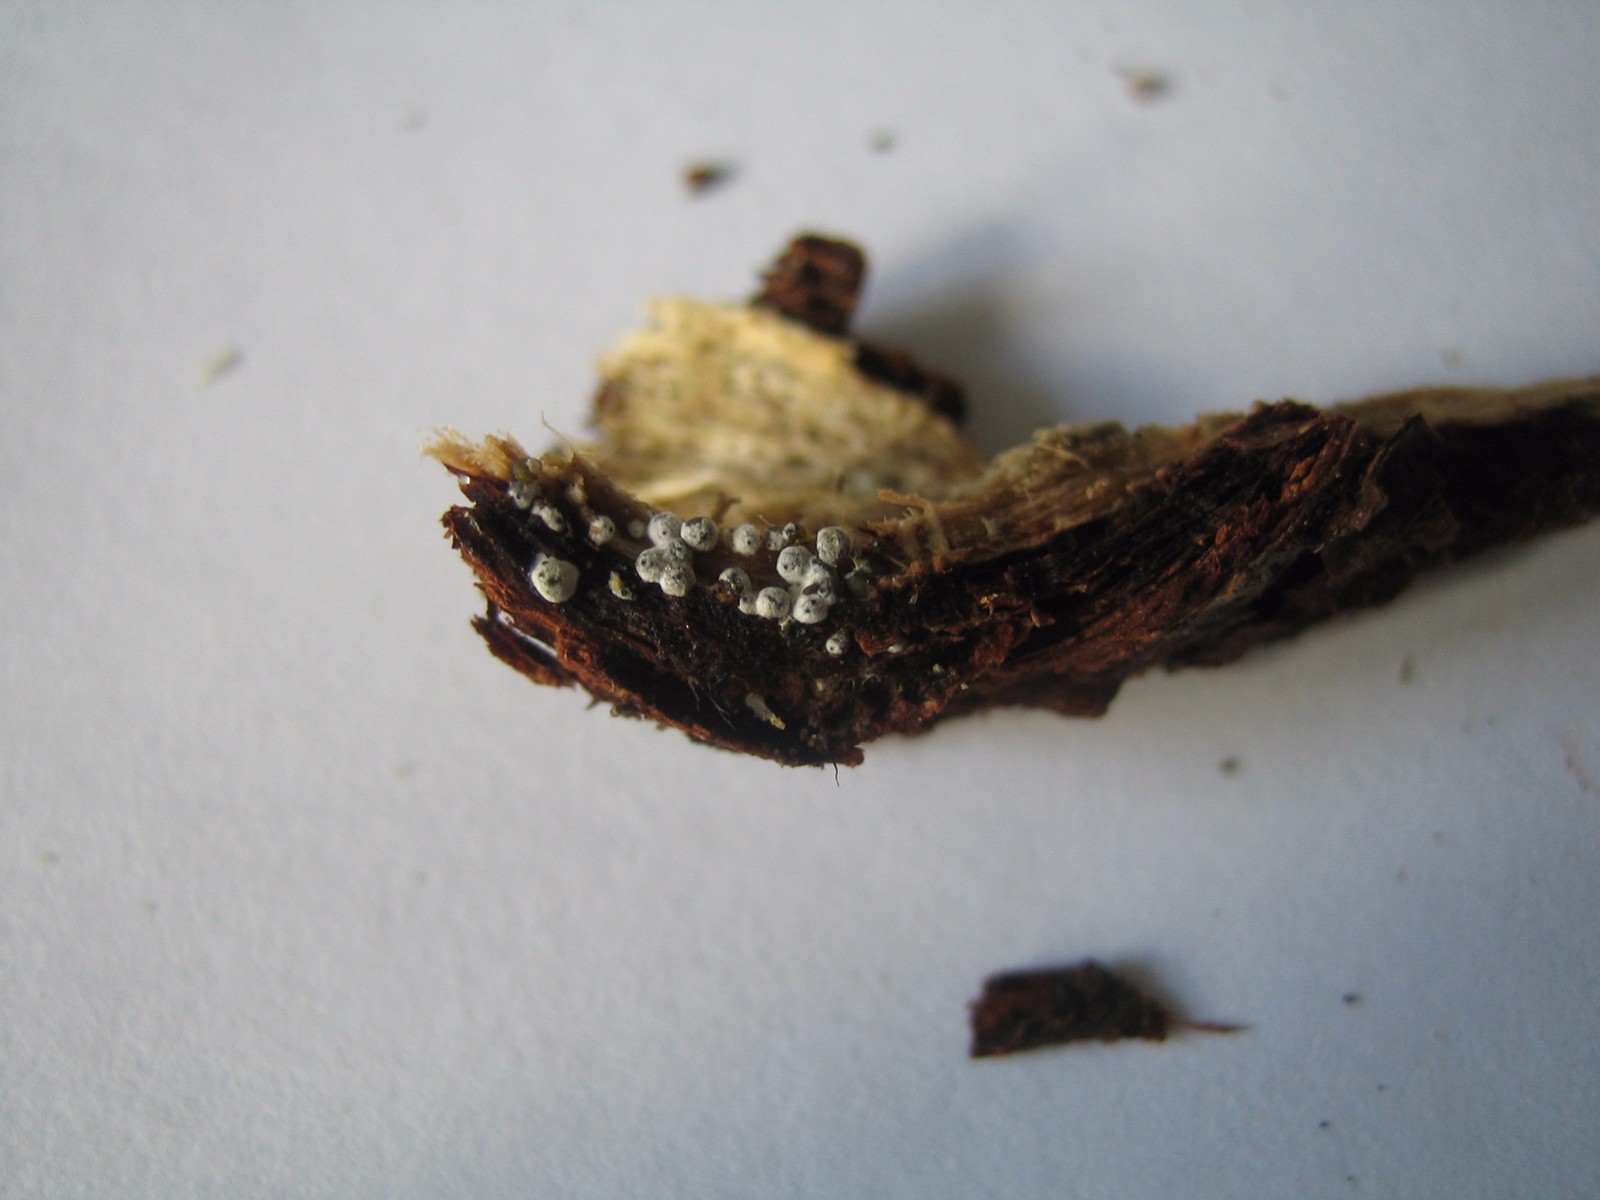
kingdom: Fungi
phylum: Ascomycota
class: Sordariomycetes
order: Sordariales
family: Lasiosphaeriaceae
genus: Lasiosphaeria
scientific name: Lasiosphaeria ovina
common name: fåre-kernesvamp
